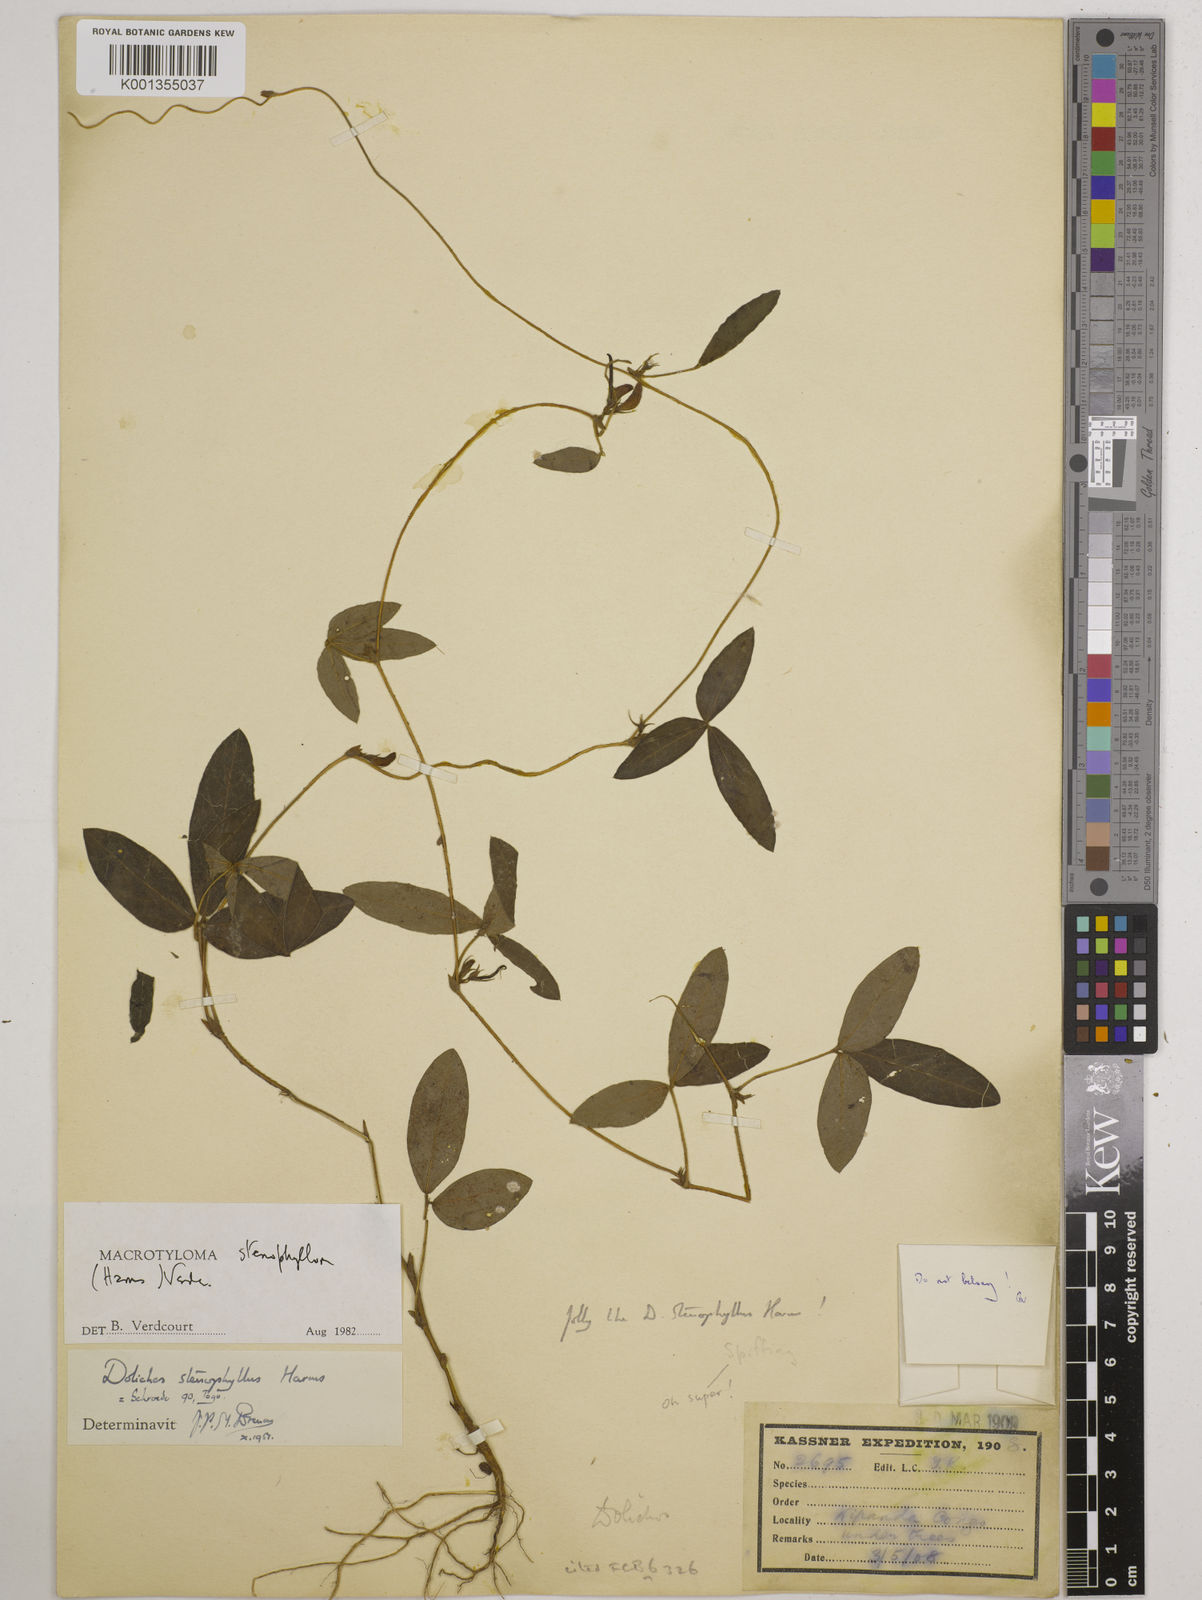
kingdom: Plantae
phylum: Tracheophyta
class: Magnoliopsida
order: Fabales
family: Fabaceae
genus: Macrotyloma
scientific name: Macrotyloma stenophyllum
